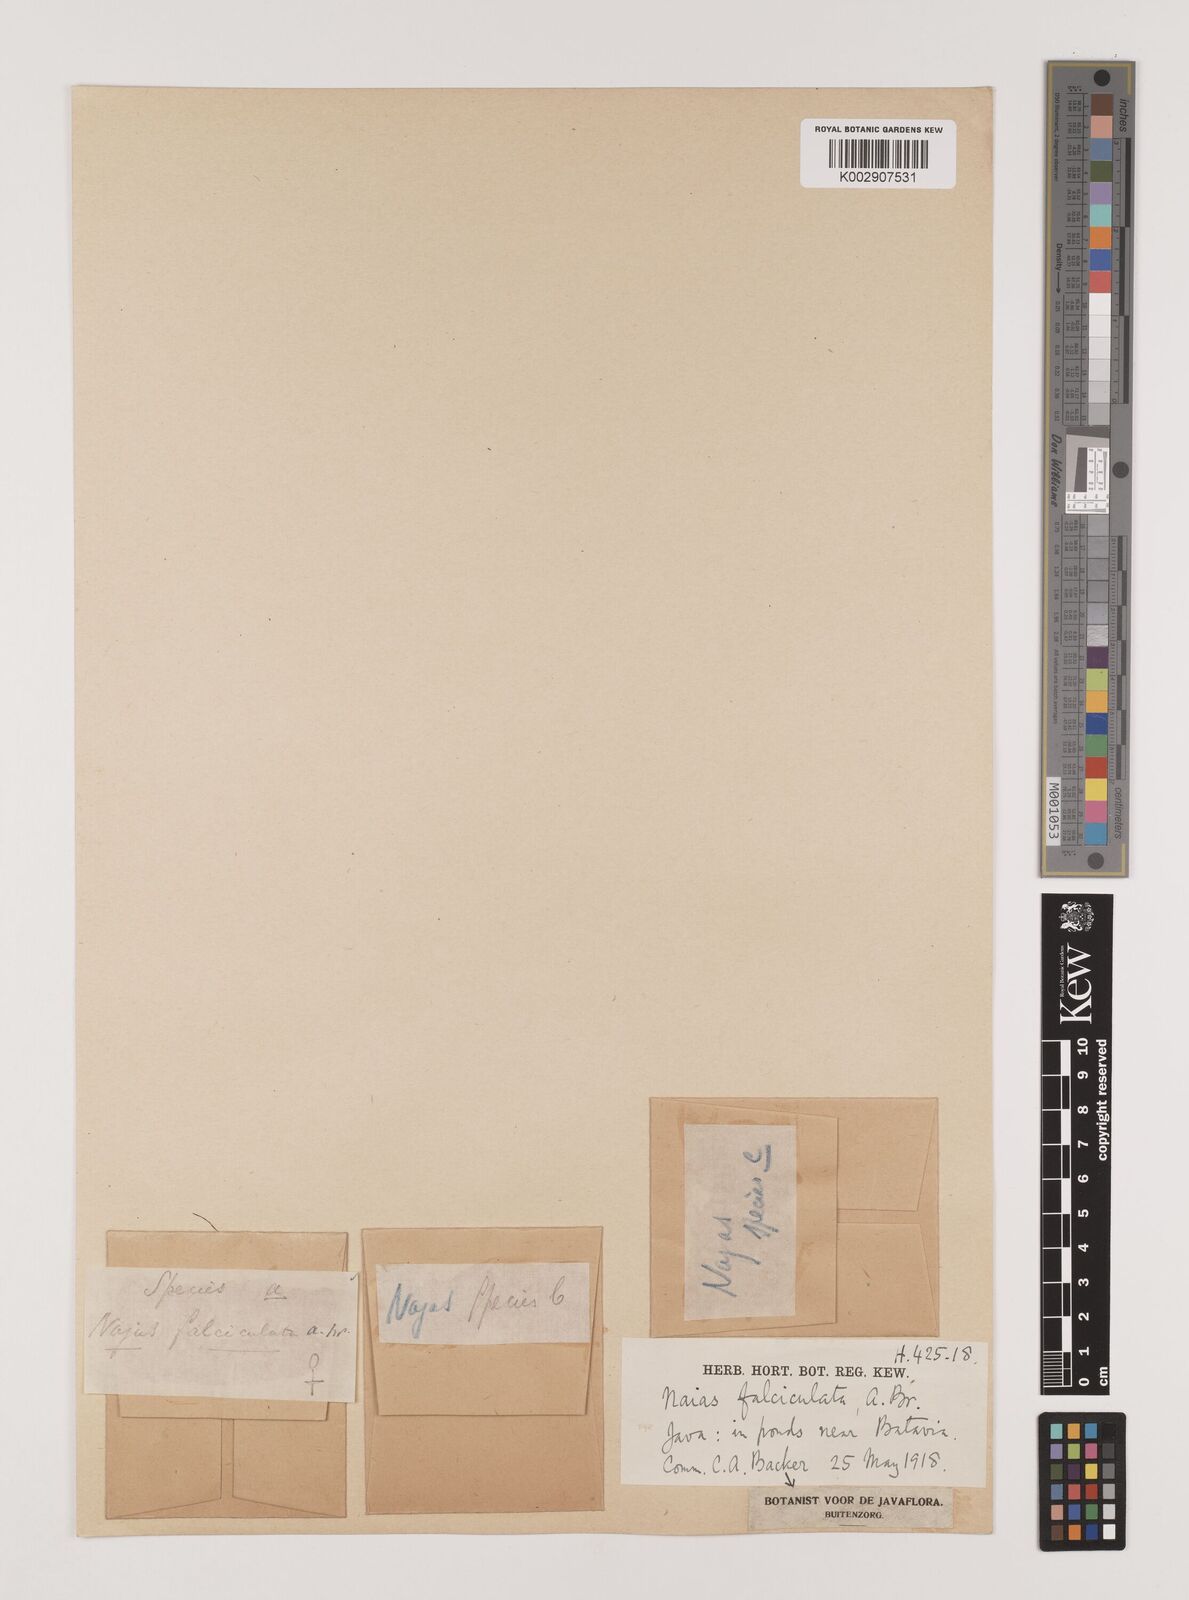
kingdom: Plantae
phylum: Tracheophyta
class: Liliopsida
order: Alismatales
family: Hydrocharitaceae
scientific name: Hydrocharitaceae
